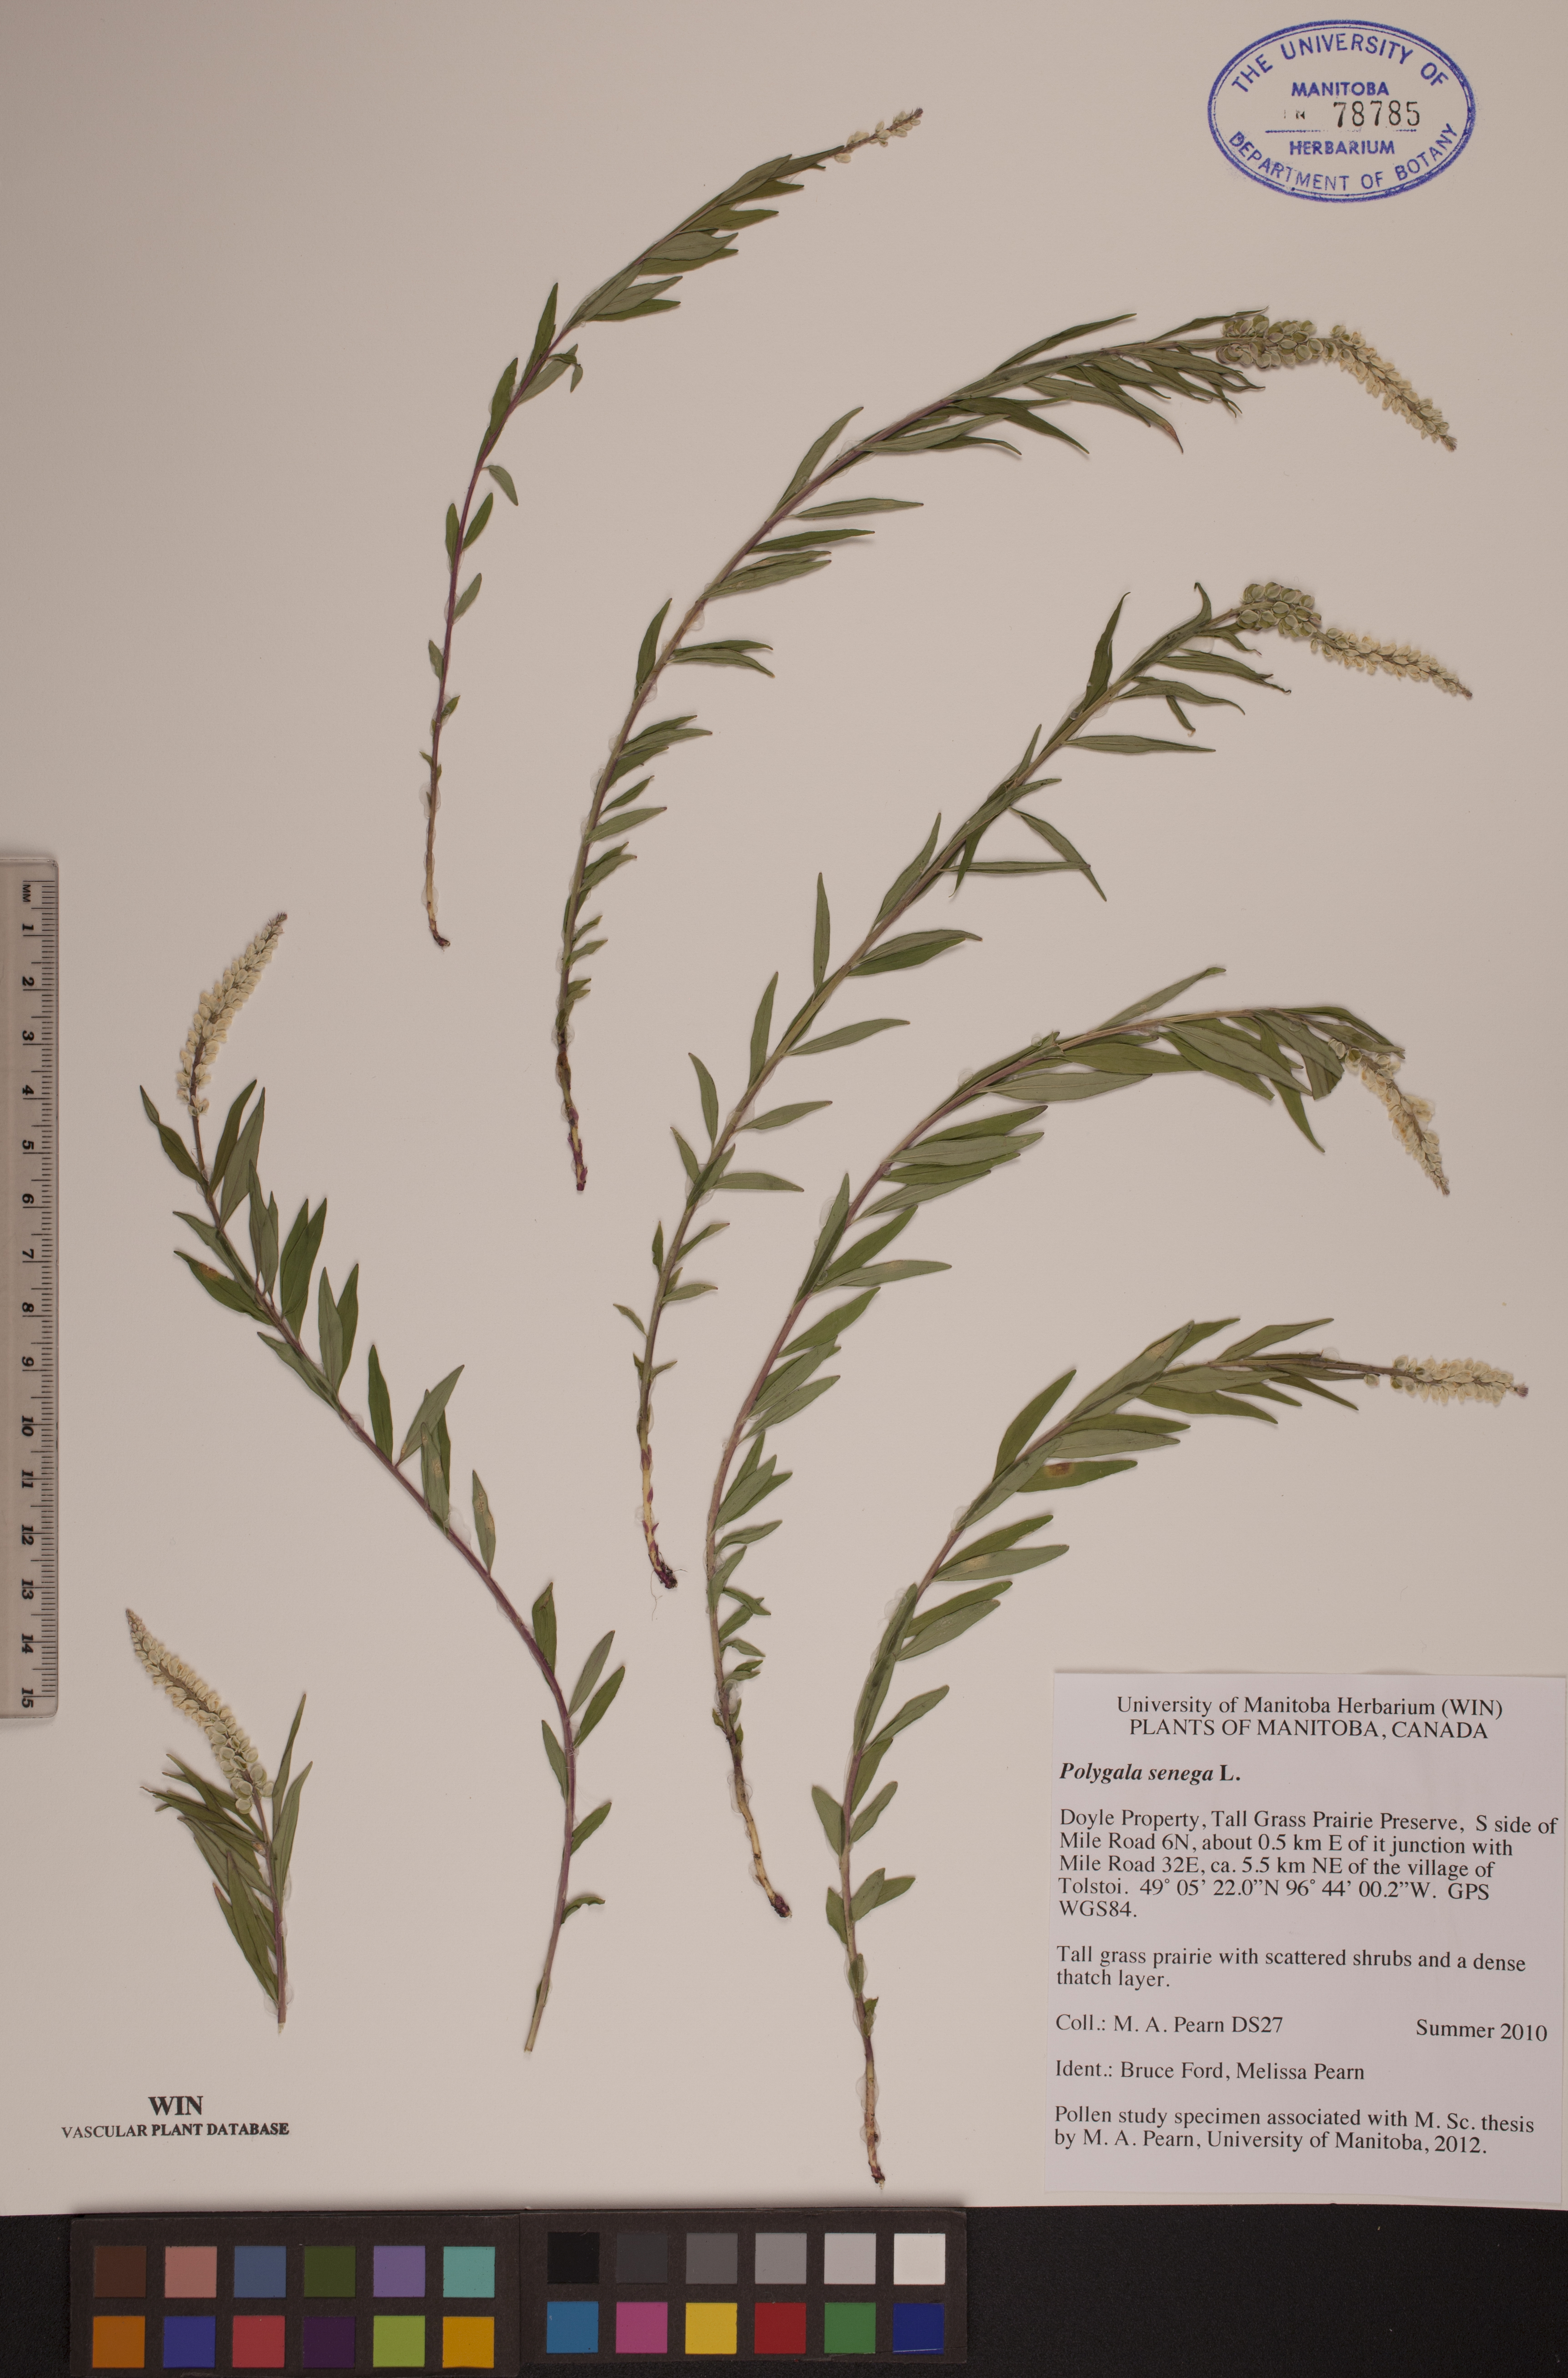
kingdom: Plantae
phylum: Tracheophyta
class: Magnoliopsida
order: Fabales
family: Polygalaceae
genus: Polygala
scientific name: Polygala senega
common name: Seneca snakeroot
